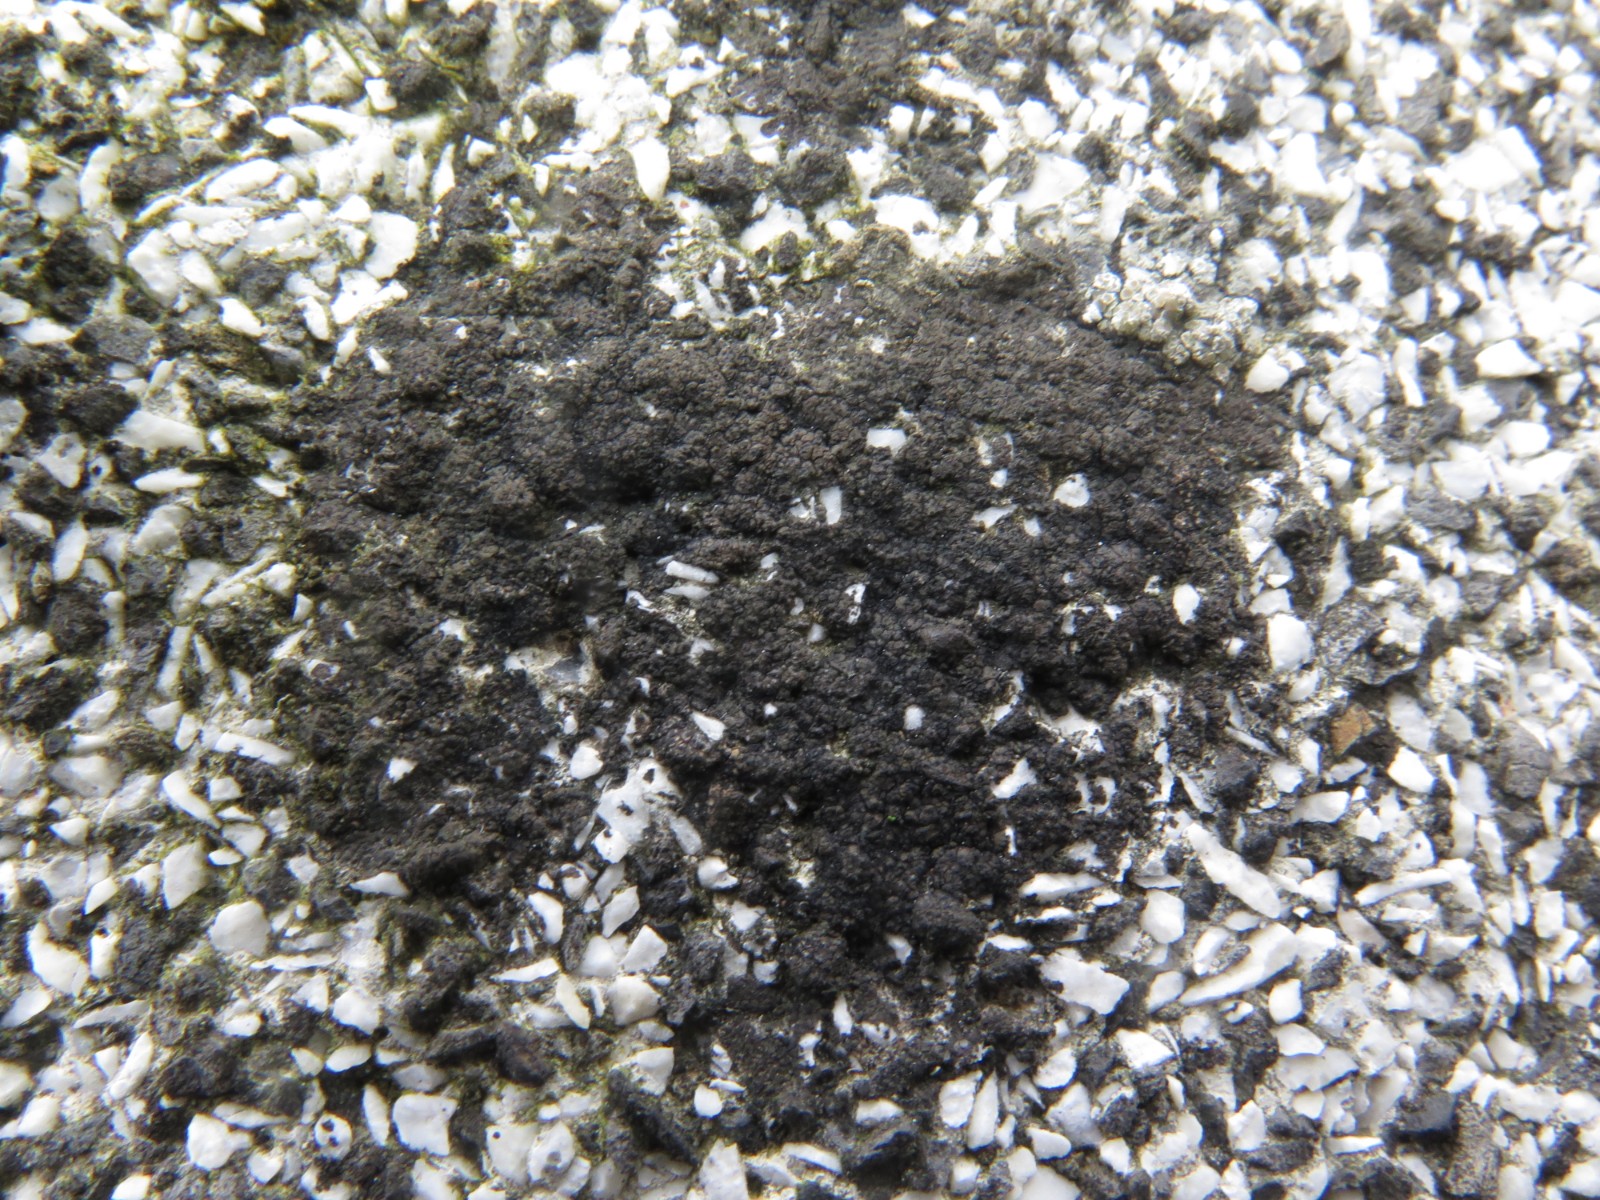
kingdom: Fungi
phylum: Ascomycota
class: Eurotiomycetes
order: Verrucariales
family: Verrucariaceae
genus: Verrucaria
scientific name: Verrucaria nigrescens
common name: sortbrun vortelav
